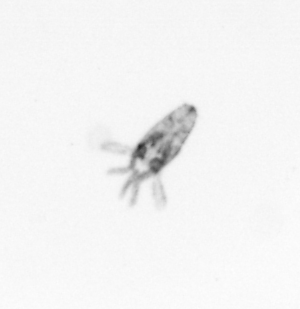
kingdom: Animalia
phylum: Arthropoda
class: Copepoda
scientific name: Copepoda
